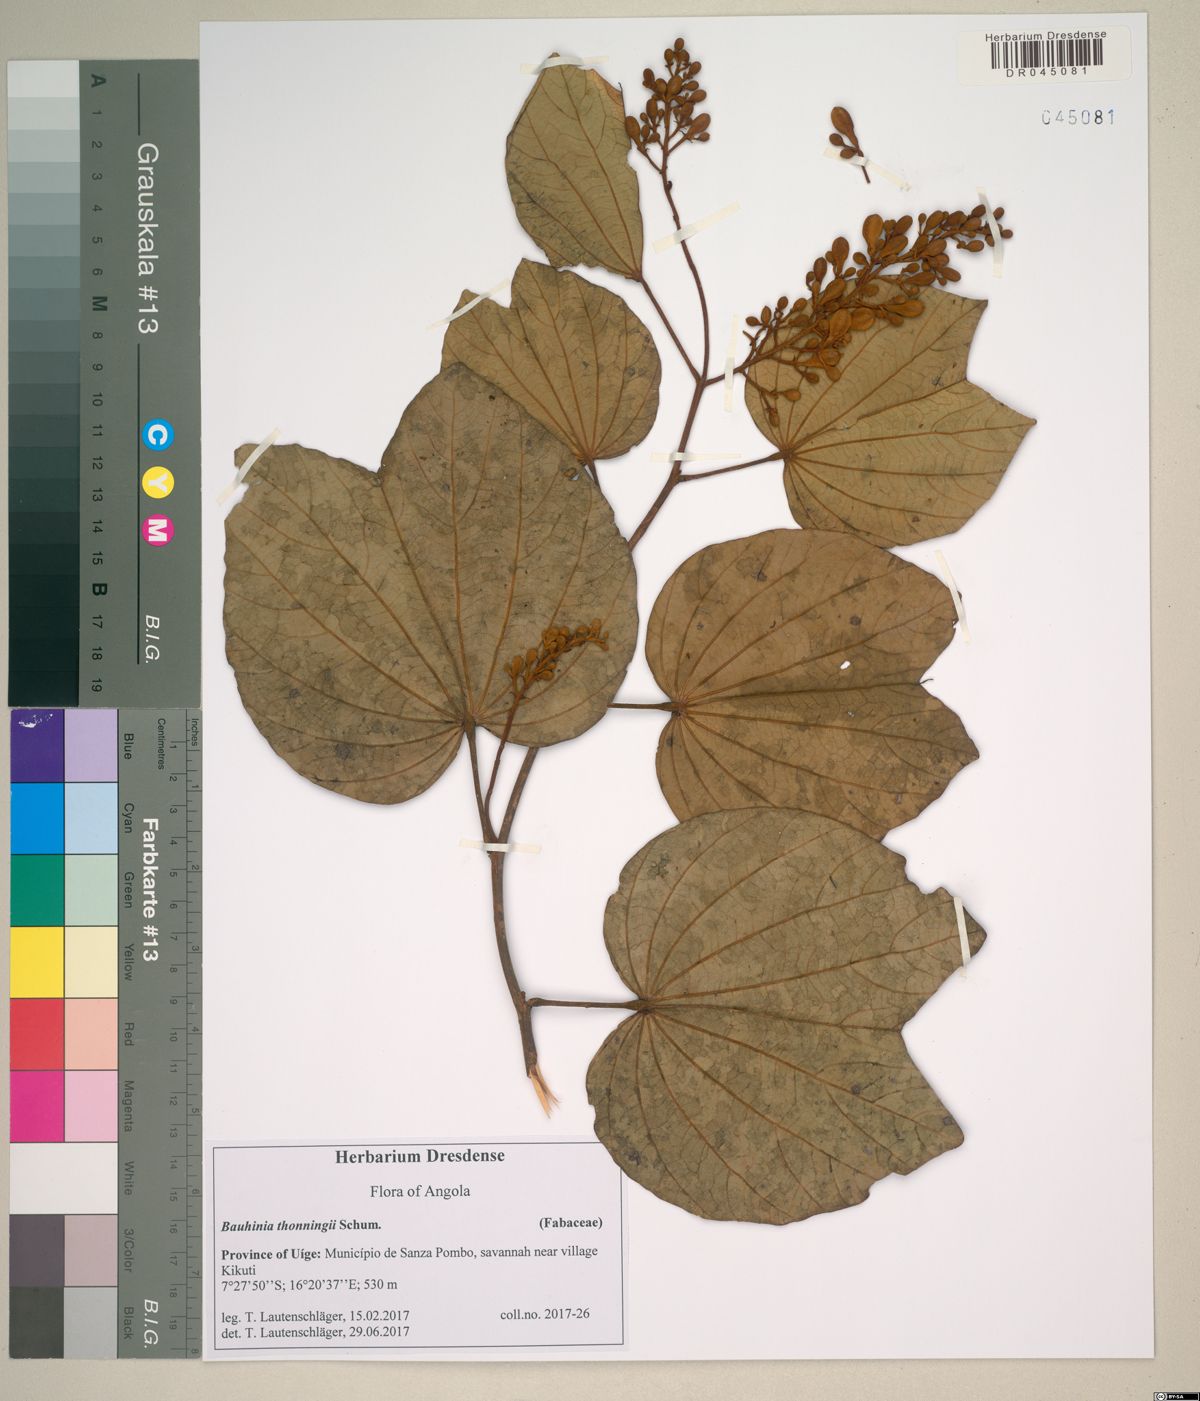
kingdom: Plantae
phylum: Tracheophyta
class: Magnoliopsida
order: Fabales
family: Fabaceae
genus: Piliostigma
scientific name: Piliostigma thonningii
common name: Kao
